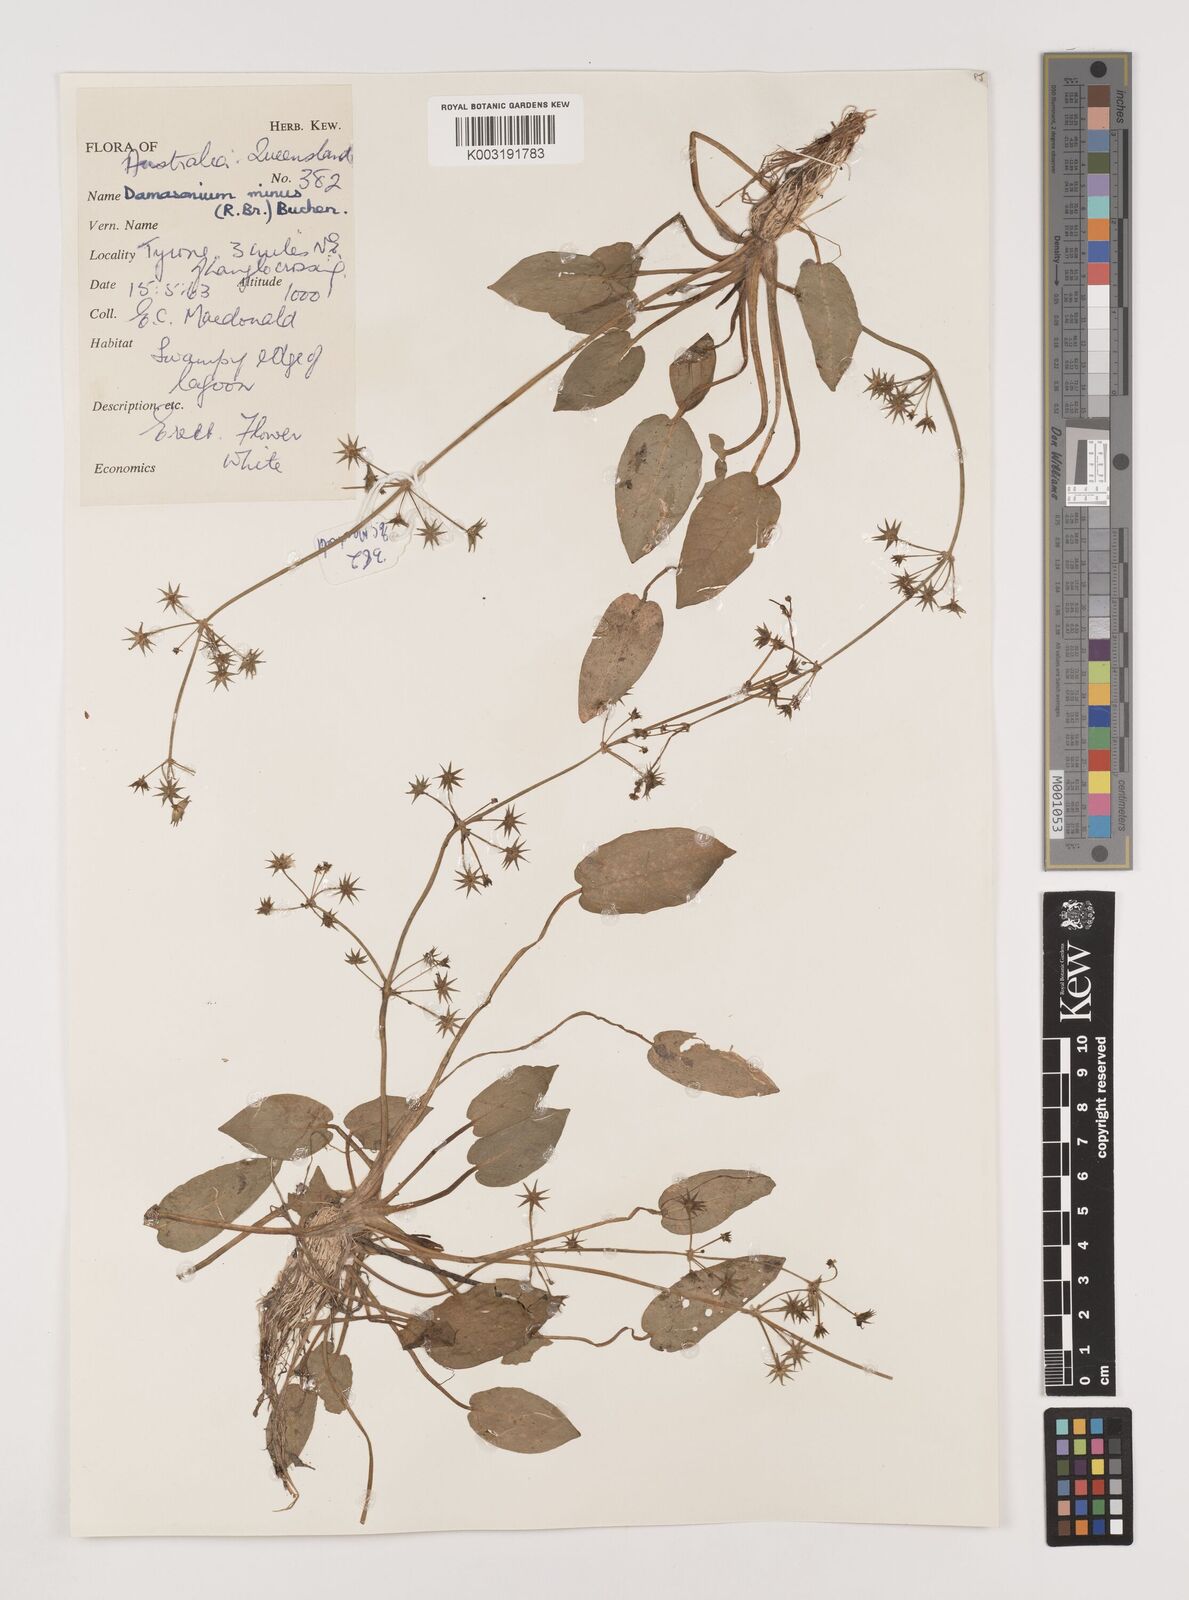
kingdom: Plantae
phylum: Tracheophyta
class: Liliopsida
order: Alismatales
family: Alismataceae
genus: Damasonium
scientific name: Damasonium minus
